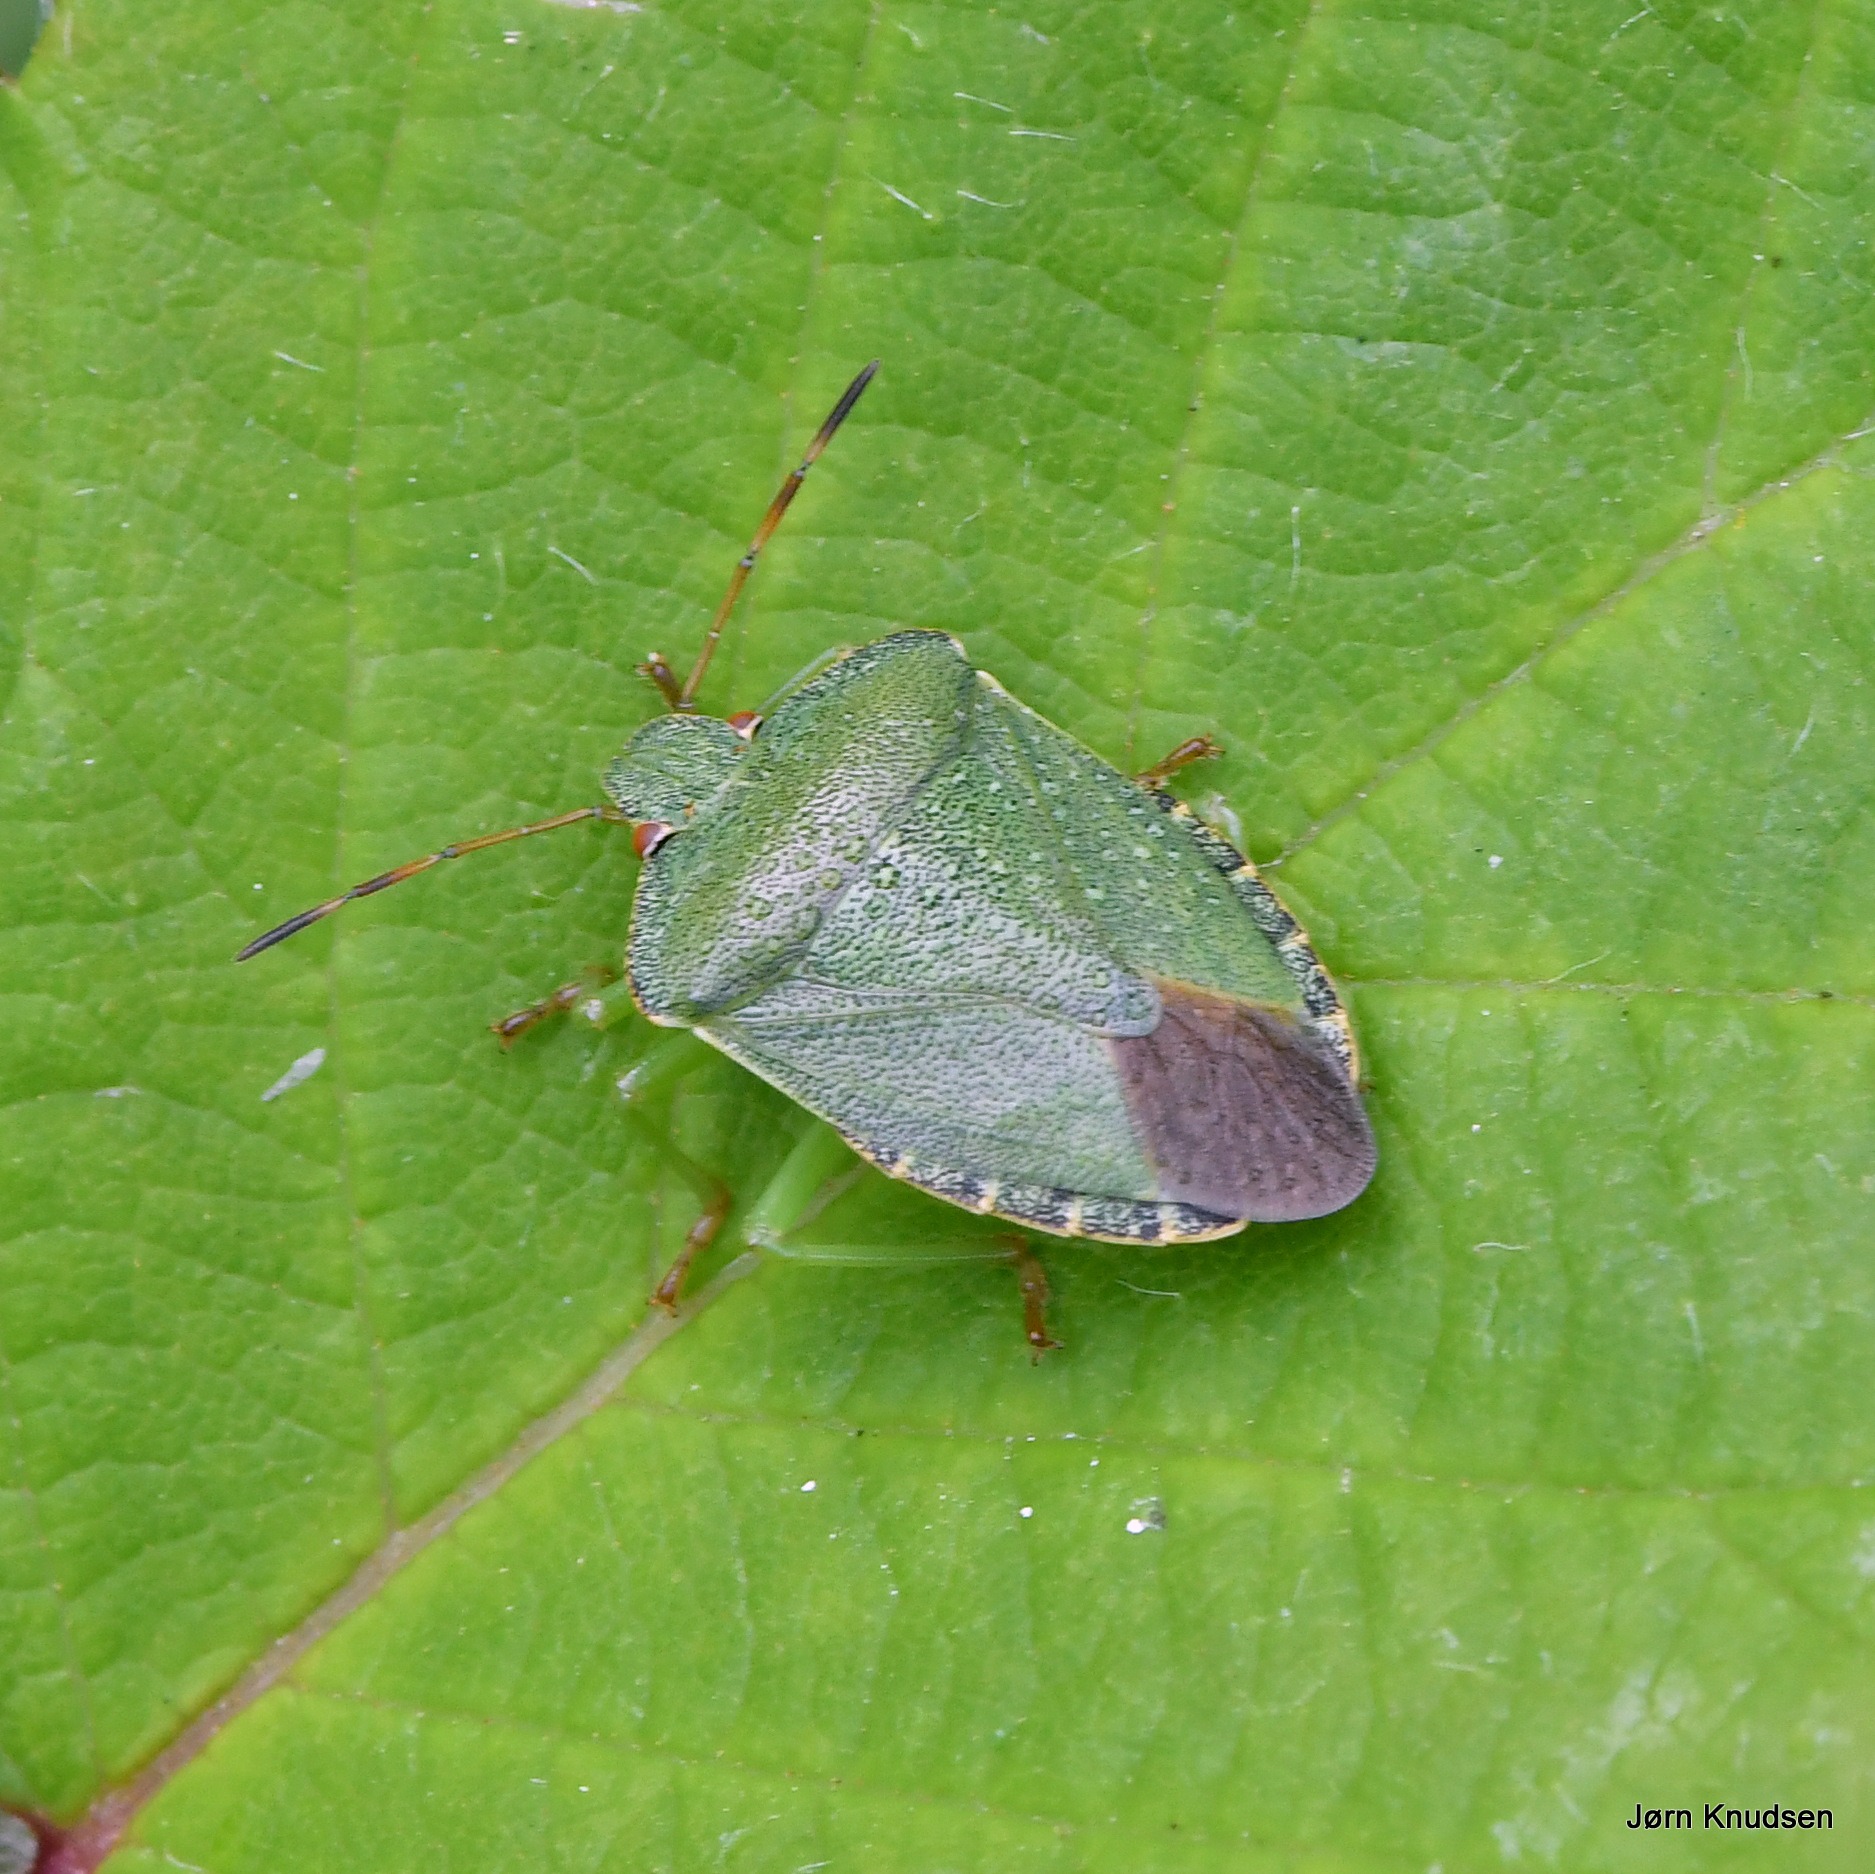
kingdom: Animalia
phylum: Arthropoda
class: Insecta
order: Hemiptera
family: Pentatomidae
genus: Palomena
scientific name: Palomena prasina
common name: Grøn bredtæge
